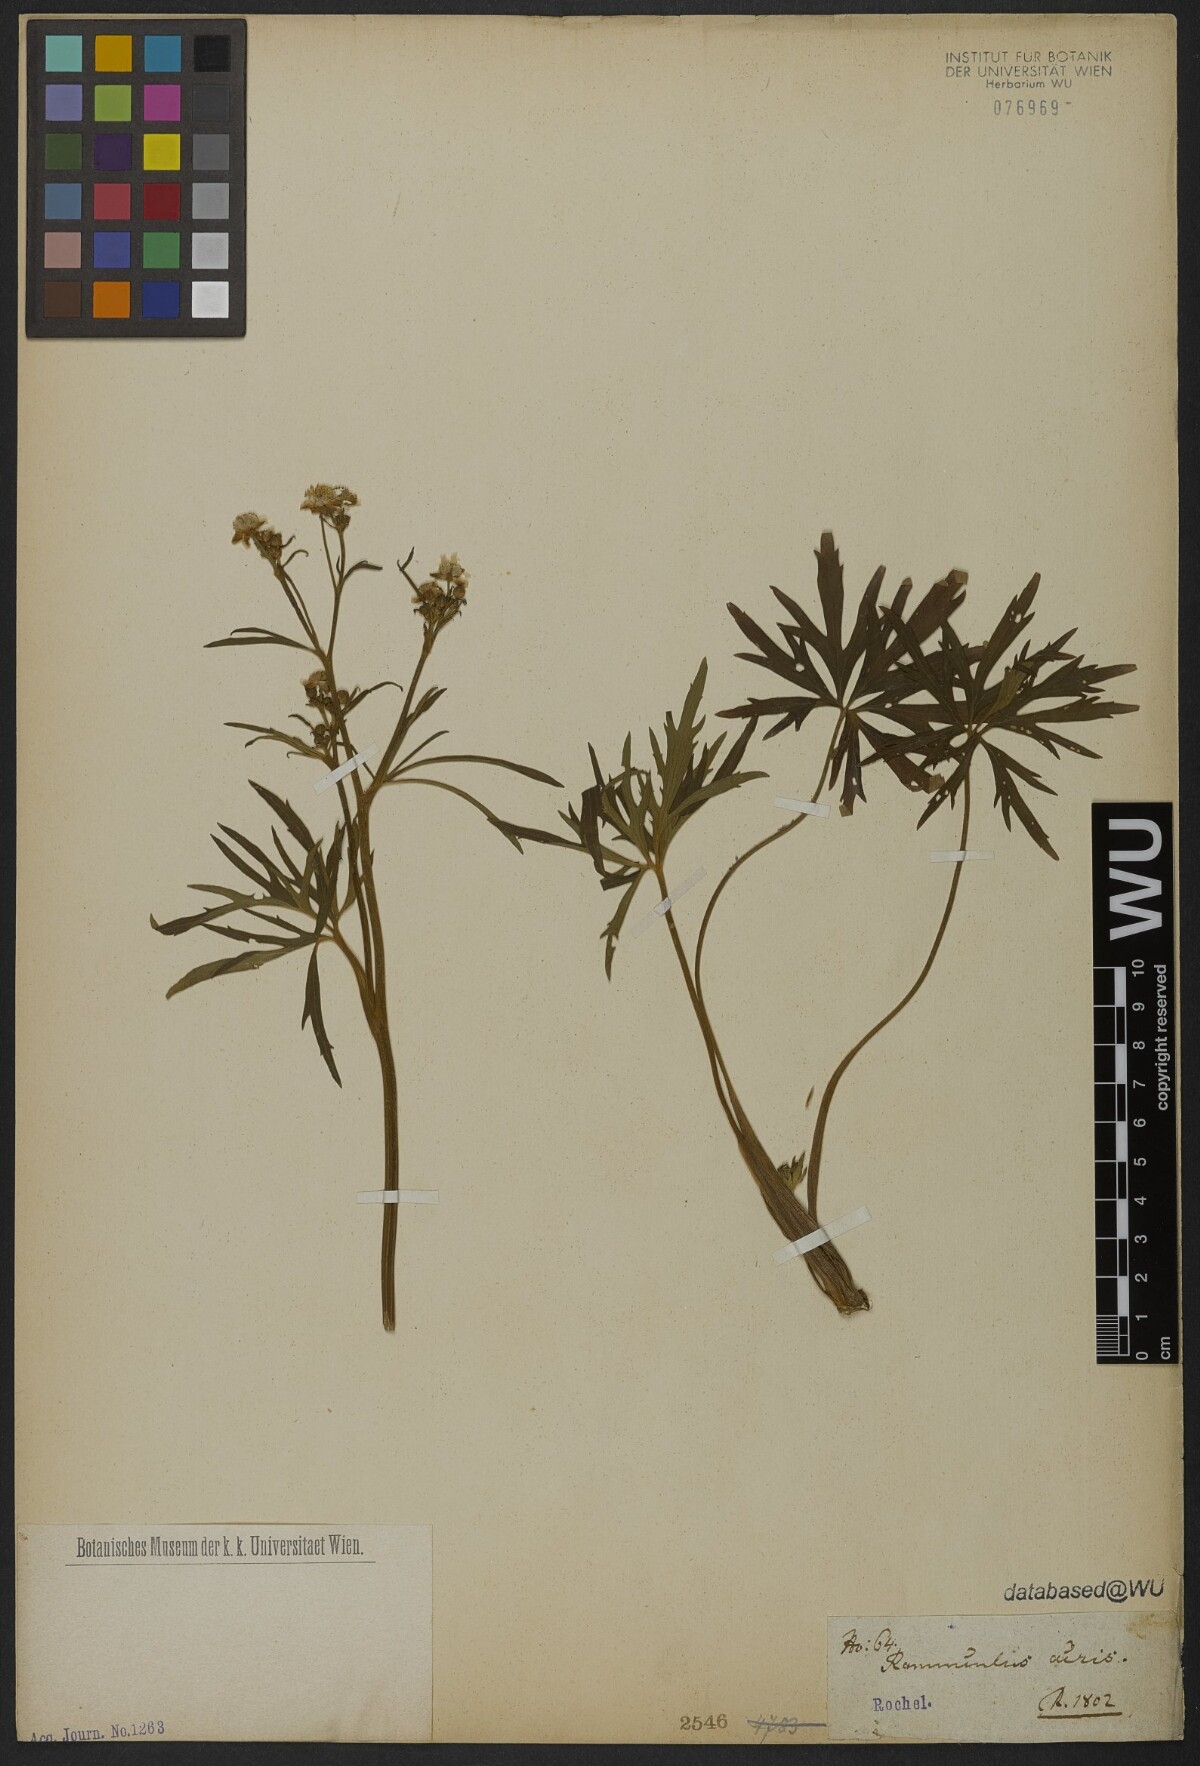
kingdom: Plantae
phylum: Tracheophyta
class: Magnoliopsida
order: Ranunculales
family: Ranunculaceae
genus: Ranunculus
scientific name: Ranunculus acris
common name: Meadow buttercup
